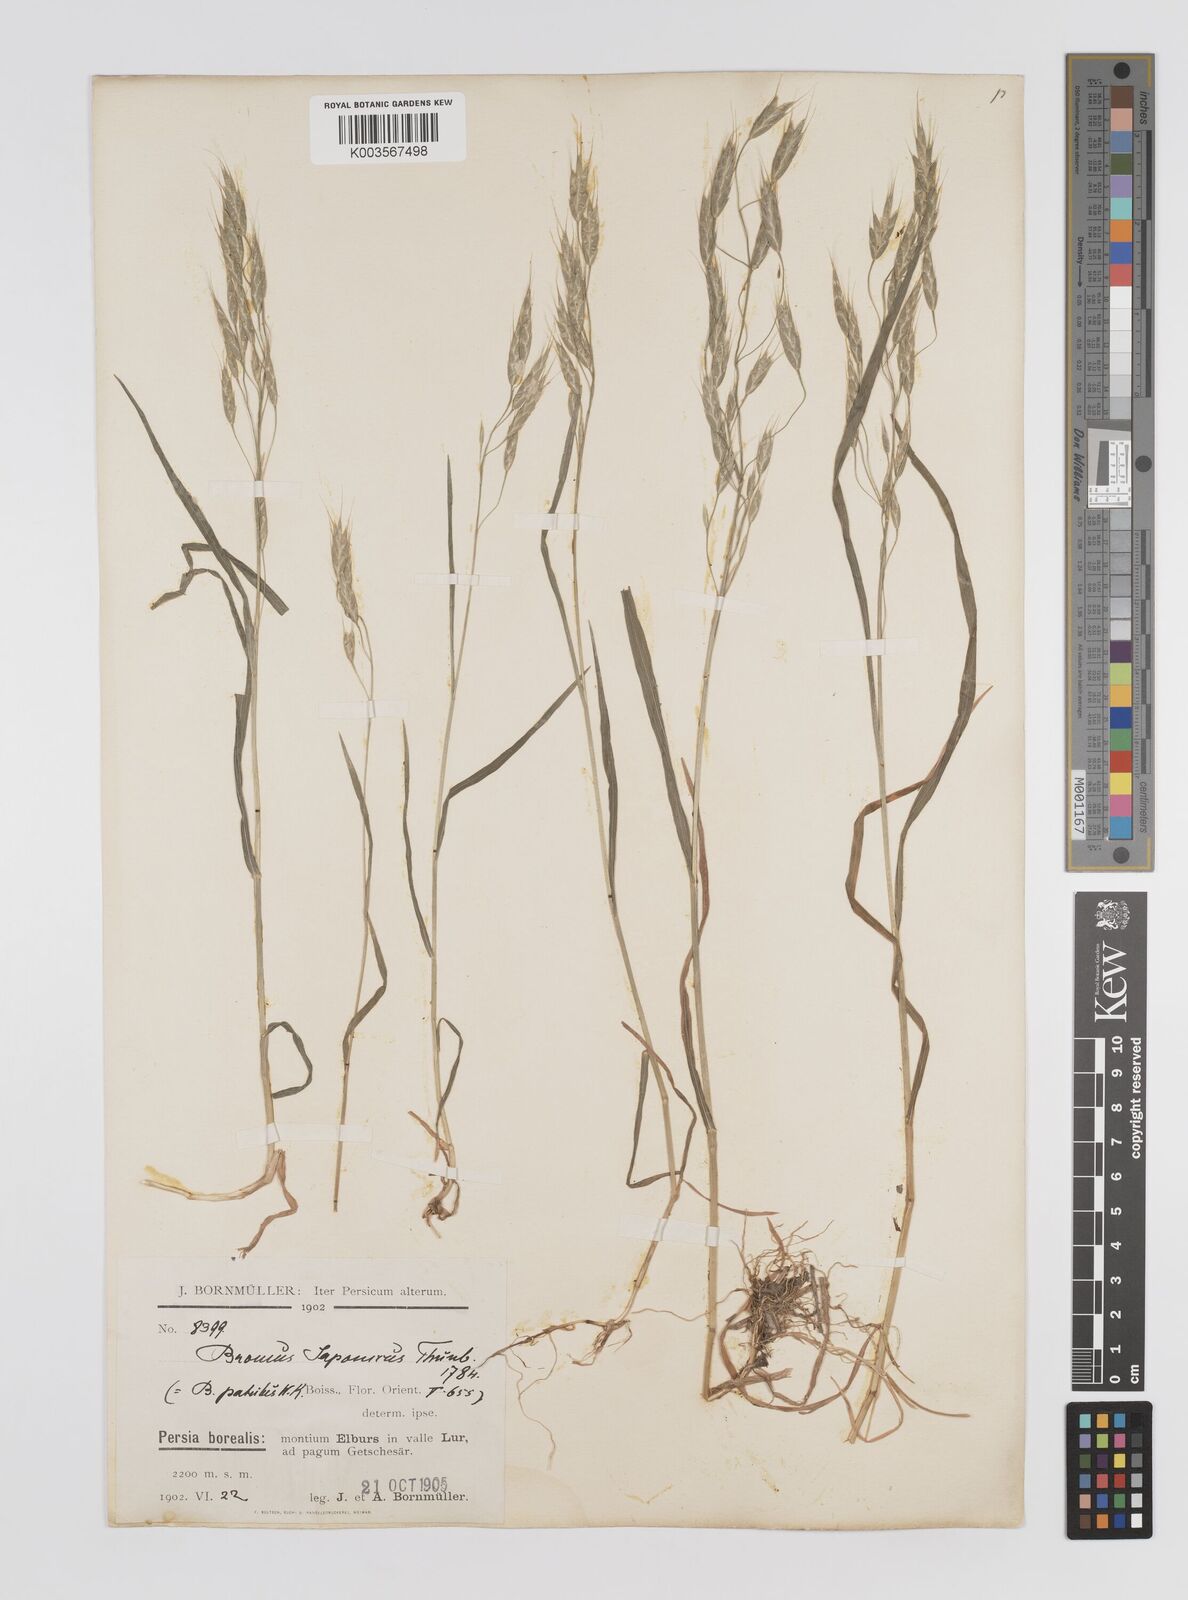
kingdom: Plantae
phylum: Tracheophyta
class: Liliopsida
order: Poales
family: Poaceae
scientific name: Poaceae
